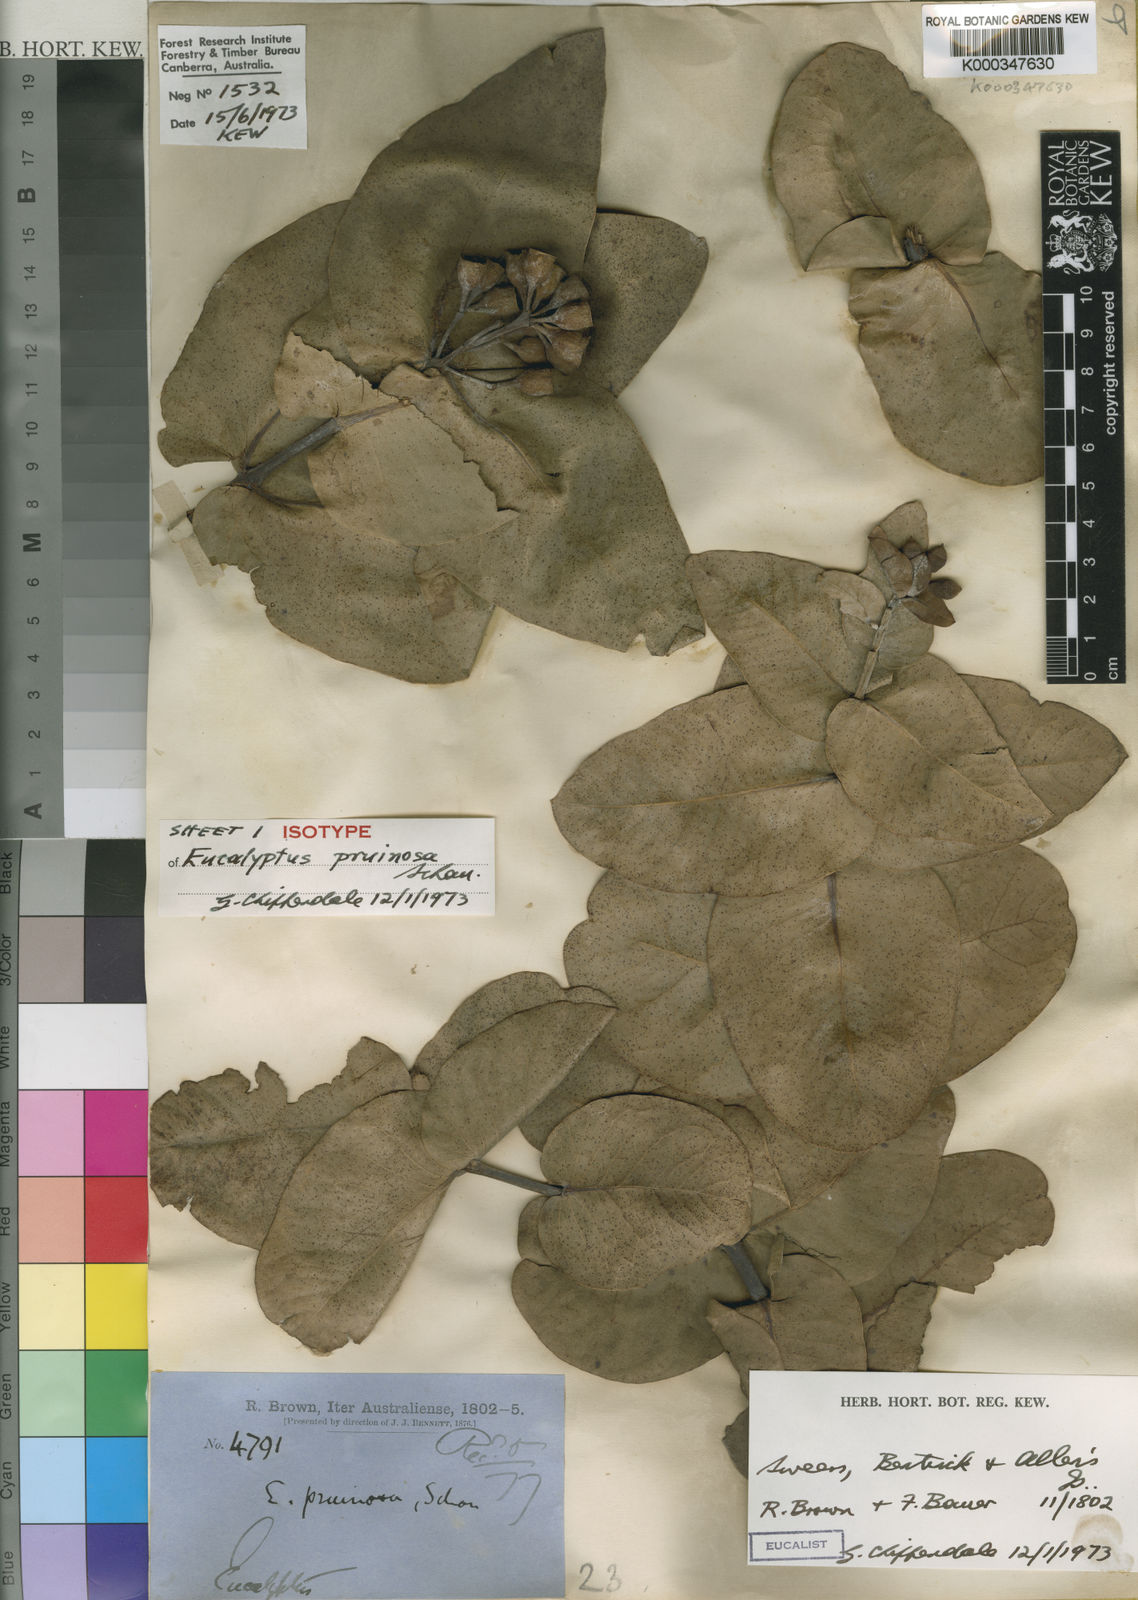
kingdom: Plantae
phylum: Tracheophyta
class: Magnoliopsida
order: Myrtales
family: Myrtaceae
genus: Eucalyptus
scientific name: Eucalyptus pruinosa
